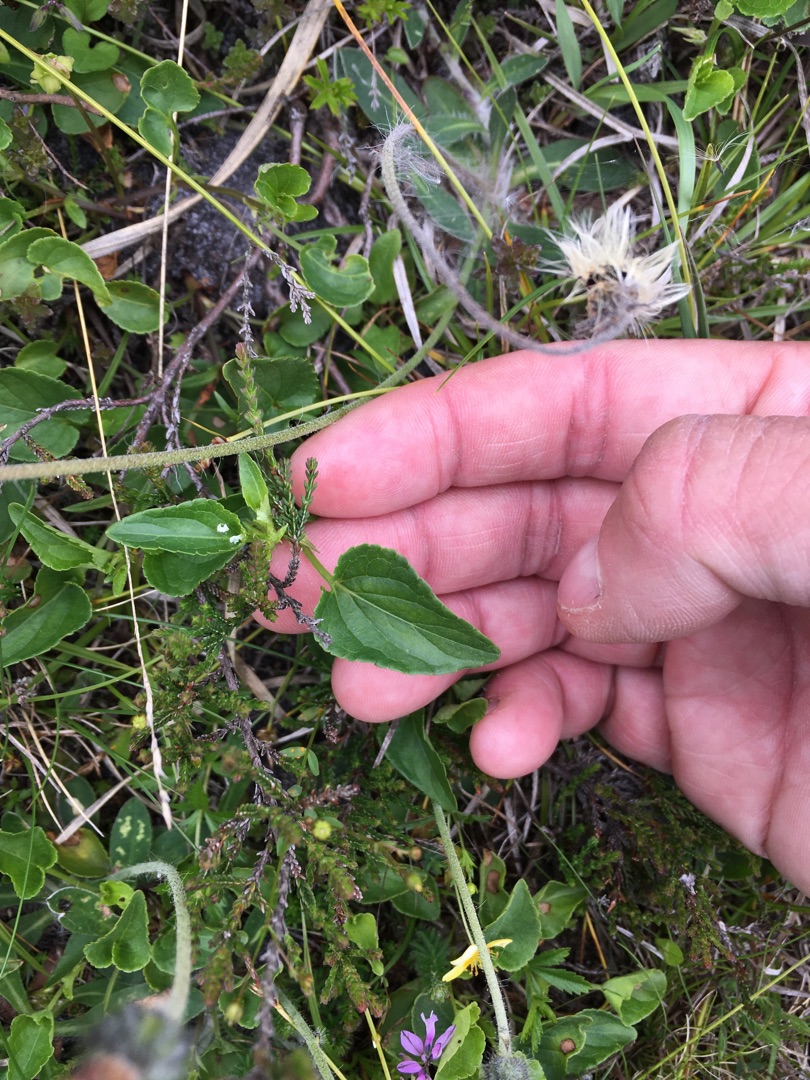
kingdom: Plantae
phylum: Tracheophyta
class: Magnoliopsida
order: Malpighiales
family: Violaceae
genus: Viola
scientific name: Viola canina
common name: Hunde-viol
